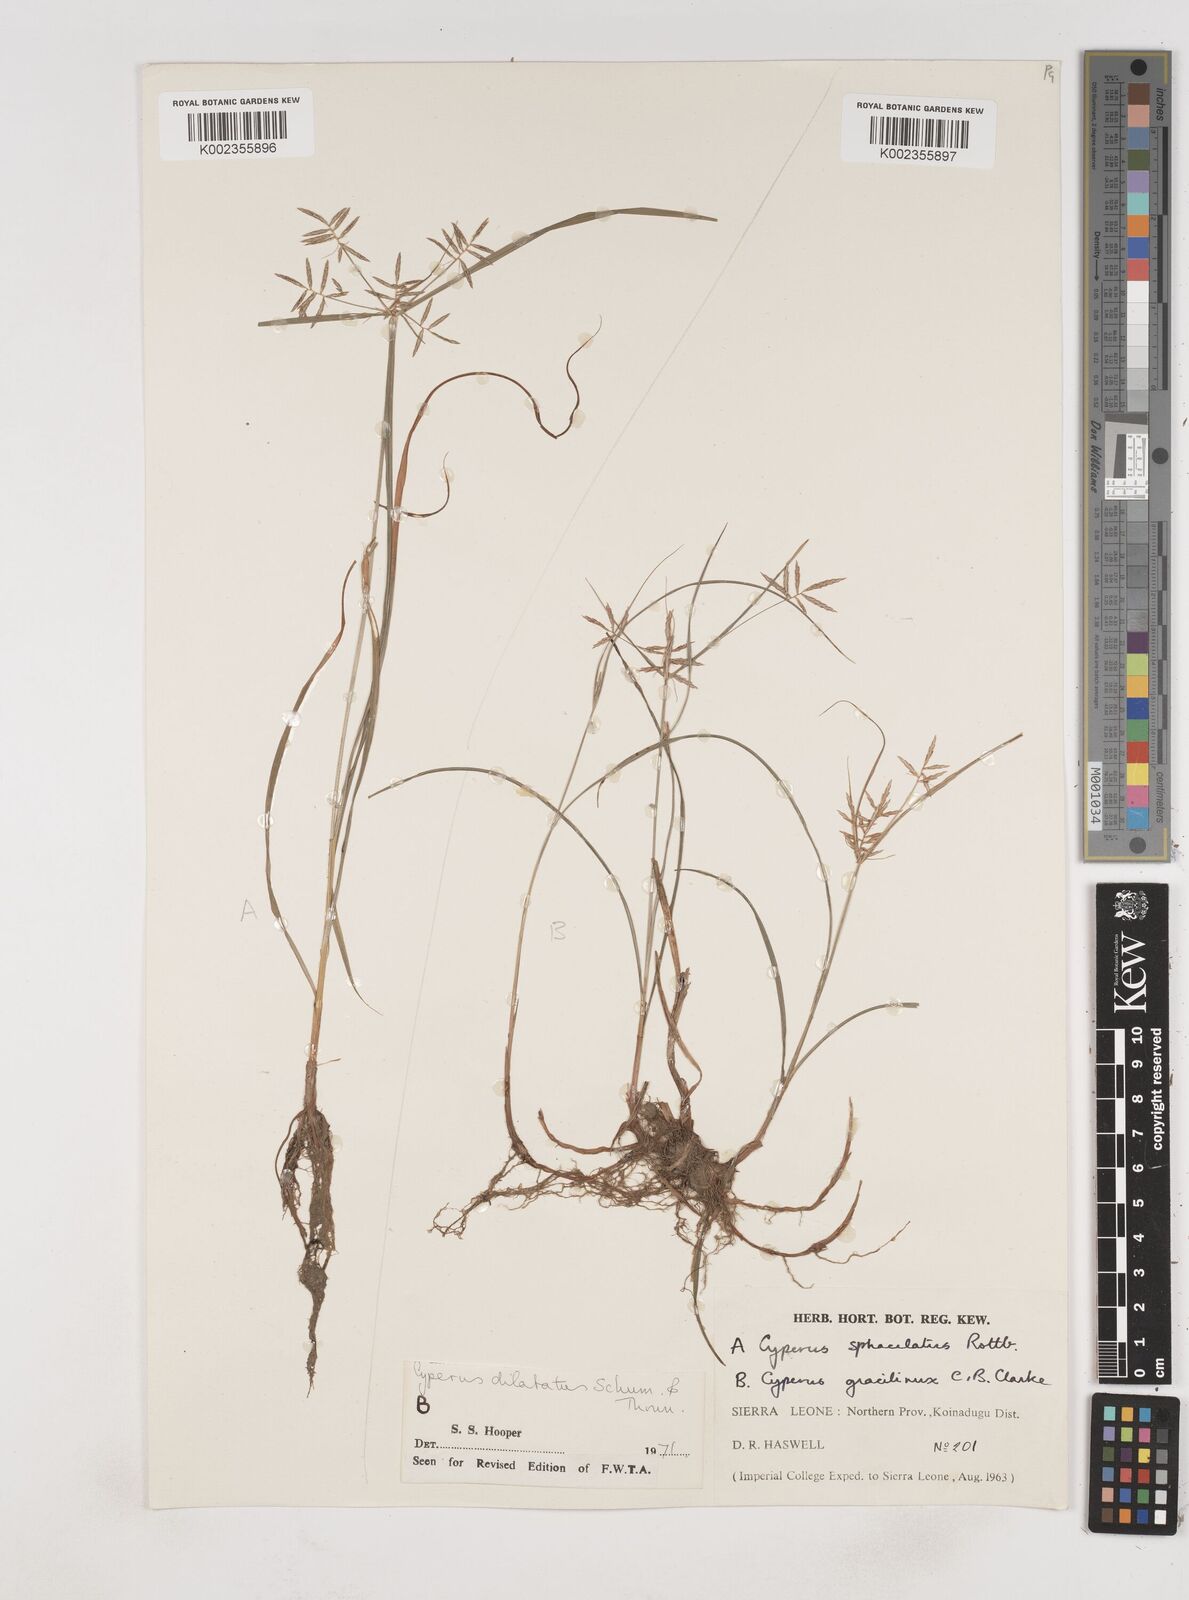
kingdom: Plantae
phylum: Tracheophyta
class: Liliopsida
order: Poales
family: Cyperaceae
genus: Cyperus
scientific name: Cyperus dilatatus
